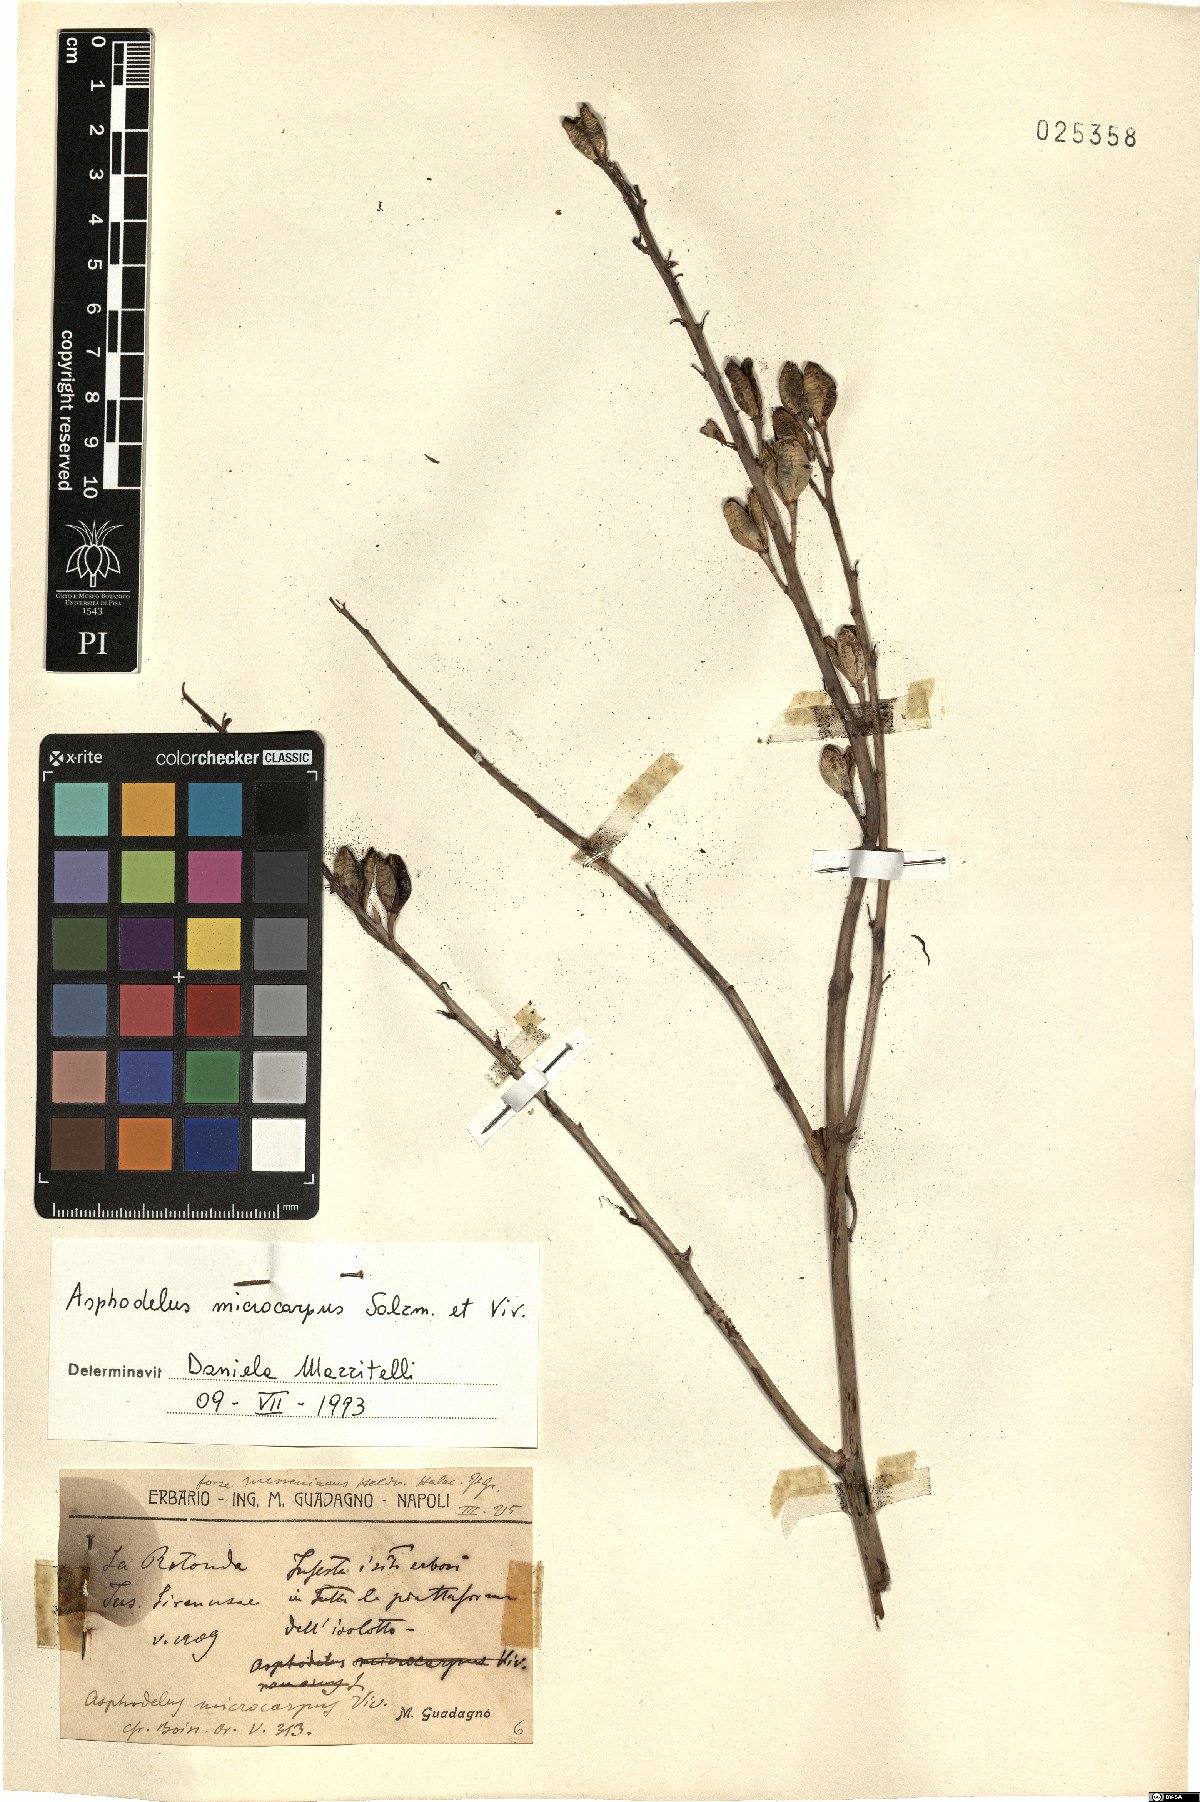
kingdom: Plantae
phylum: Tracheophyta
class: Liliopsida
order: Asparagales
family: Asphodelaceae
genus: Asphodelus
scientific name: Asphodelus ramosus
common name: Silverrod
